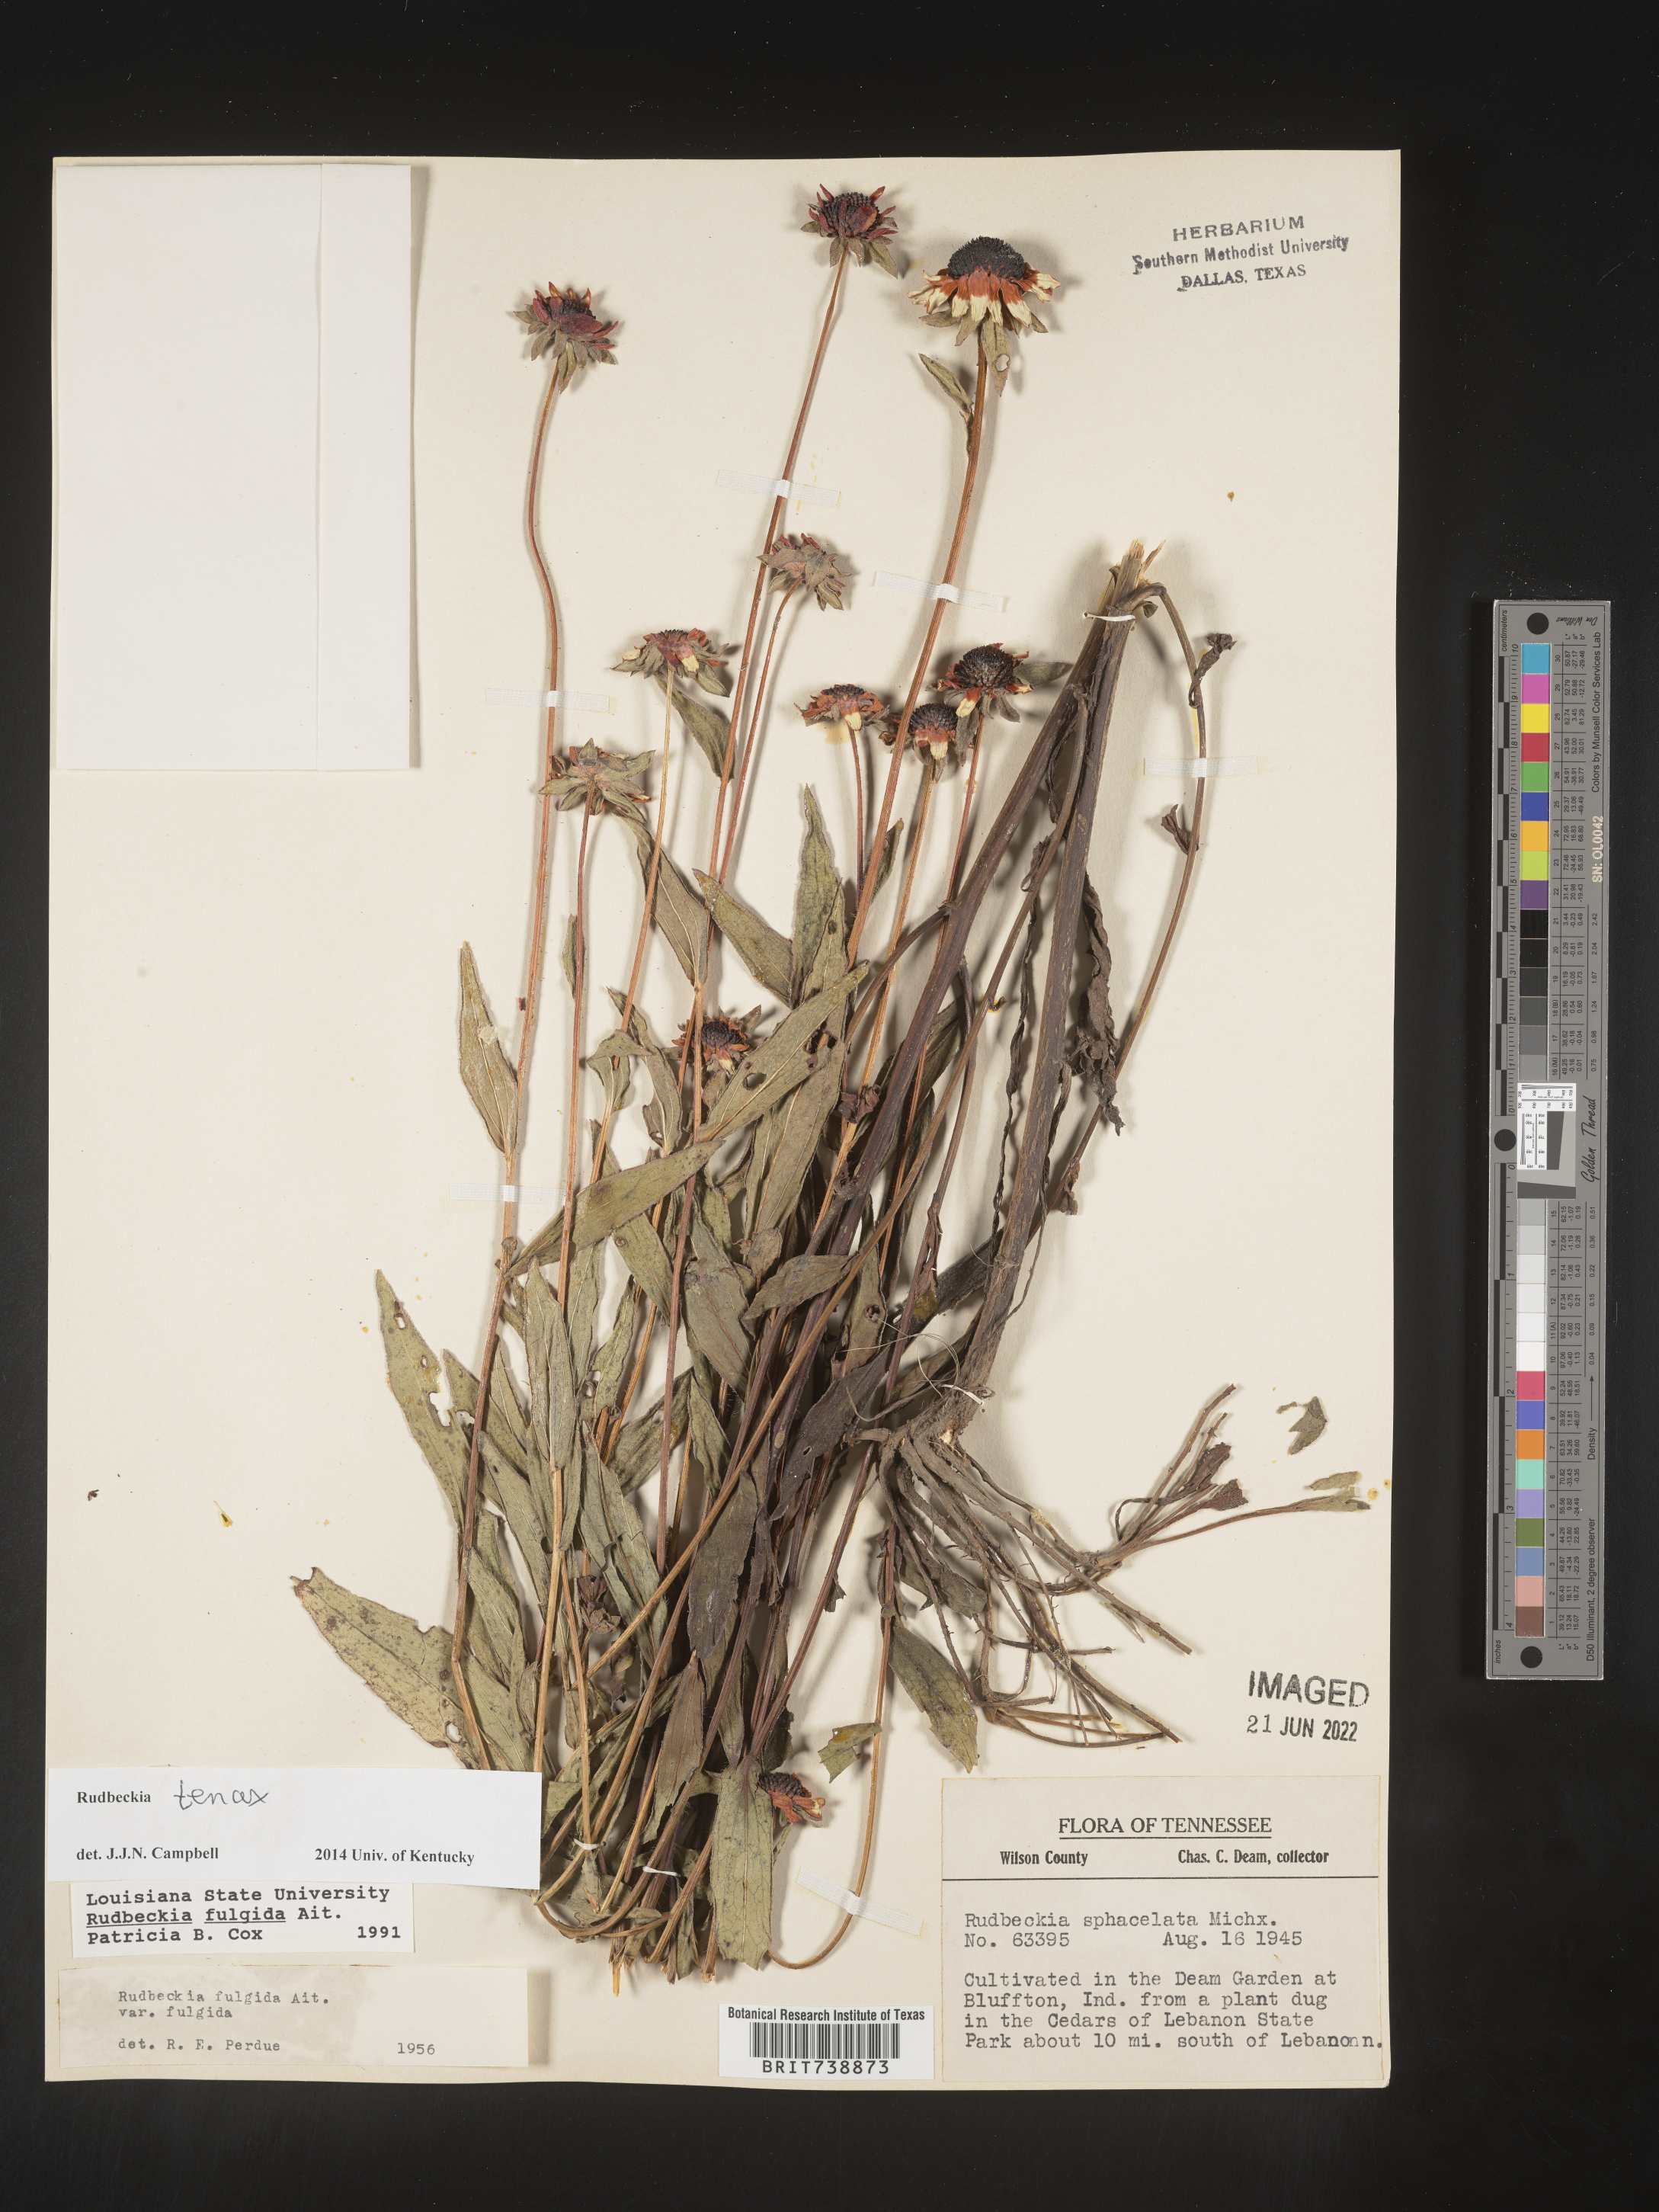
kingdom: Plantae
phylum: Tracheophyta
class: Magnoliopsida
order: Asterales
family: Asteraceae
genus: Rudbeckia
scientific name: Rudbeckia fulgida
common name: Perennial coneflower
